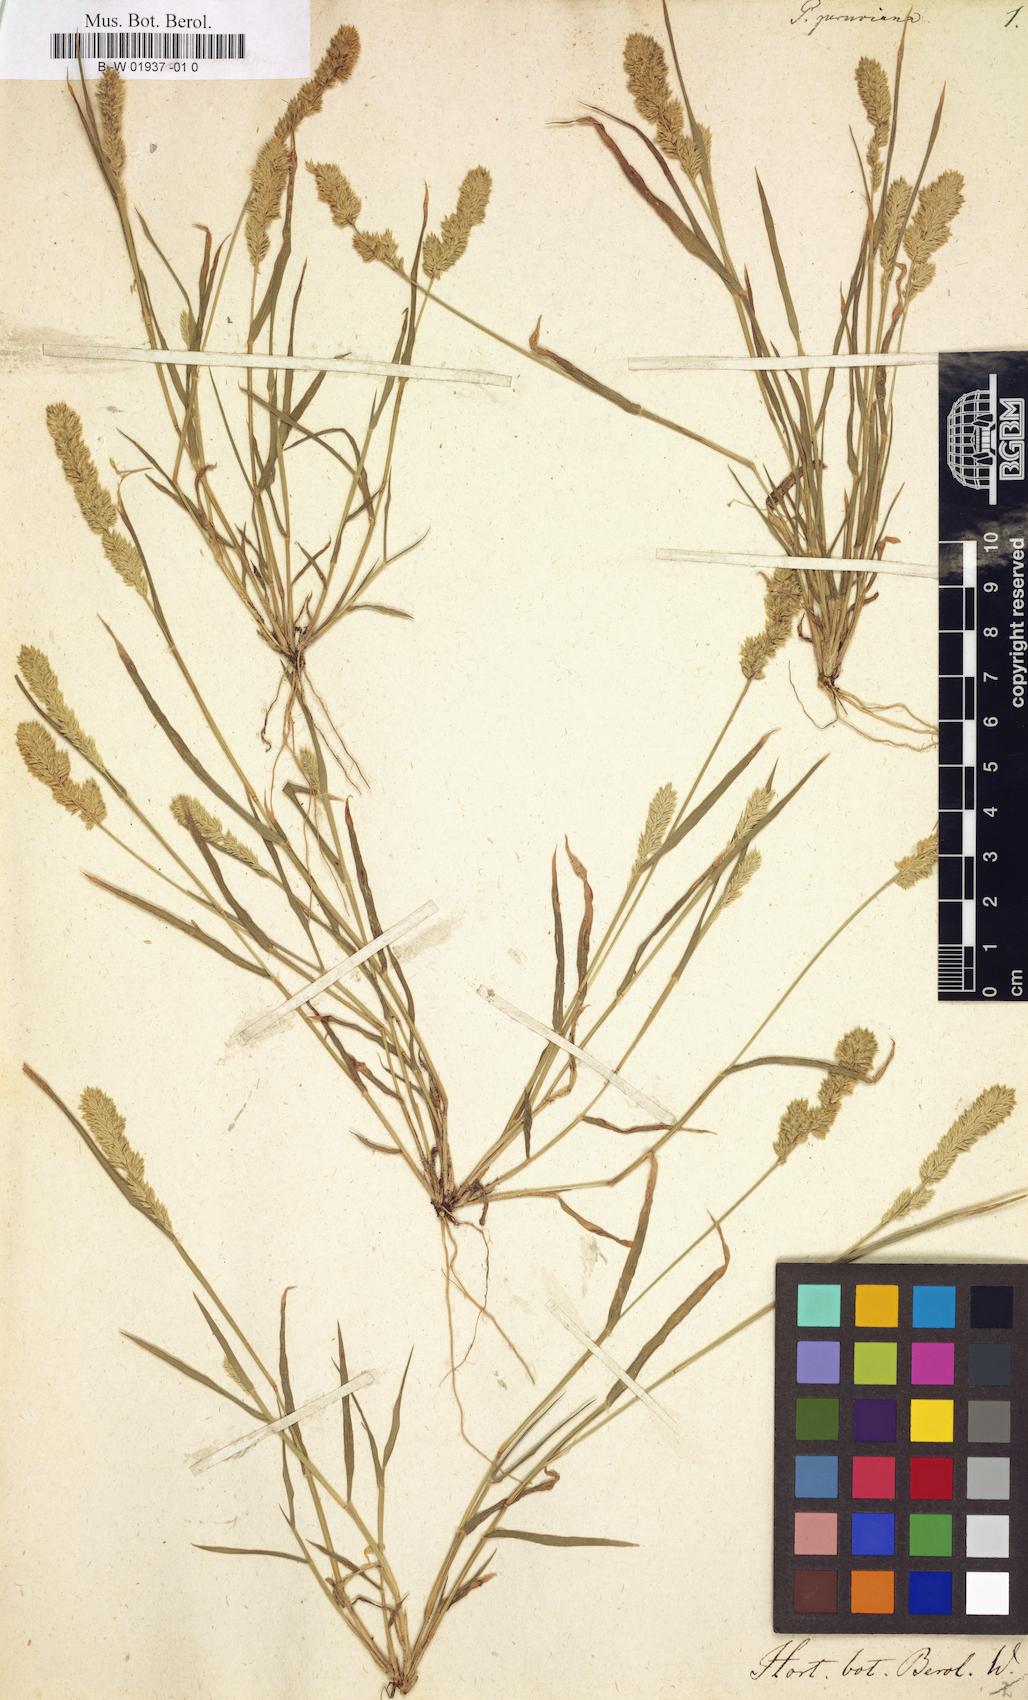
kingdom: Plantae
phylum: Tracheophyta
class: Liliopsida
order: Poales
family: Poaceae
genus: Eragrostis
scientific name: Eragrostis peruviana
